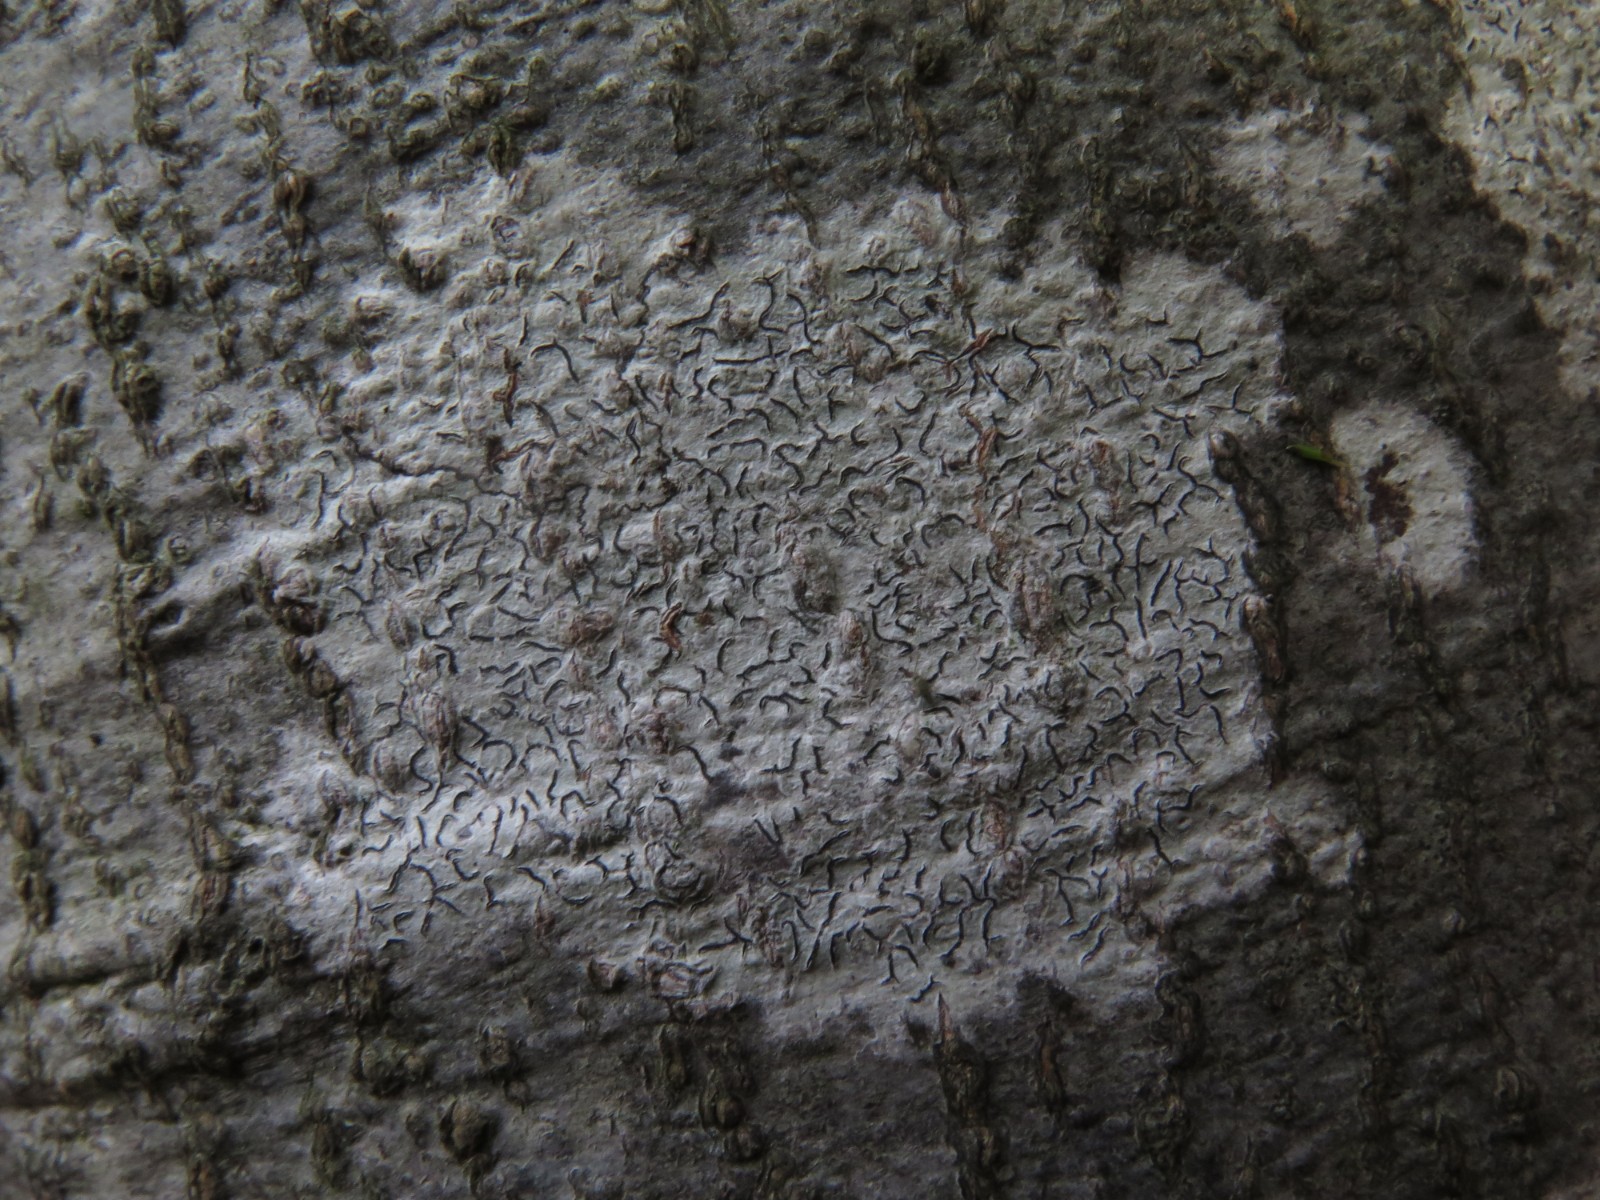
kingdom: Fungi
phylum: Basidiomycota
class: Agaricomycetes
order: Gomphales
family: Gomphaceae
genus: Ramaria
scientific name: Ramaria stricta
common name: rank koralsvamp
